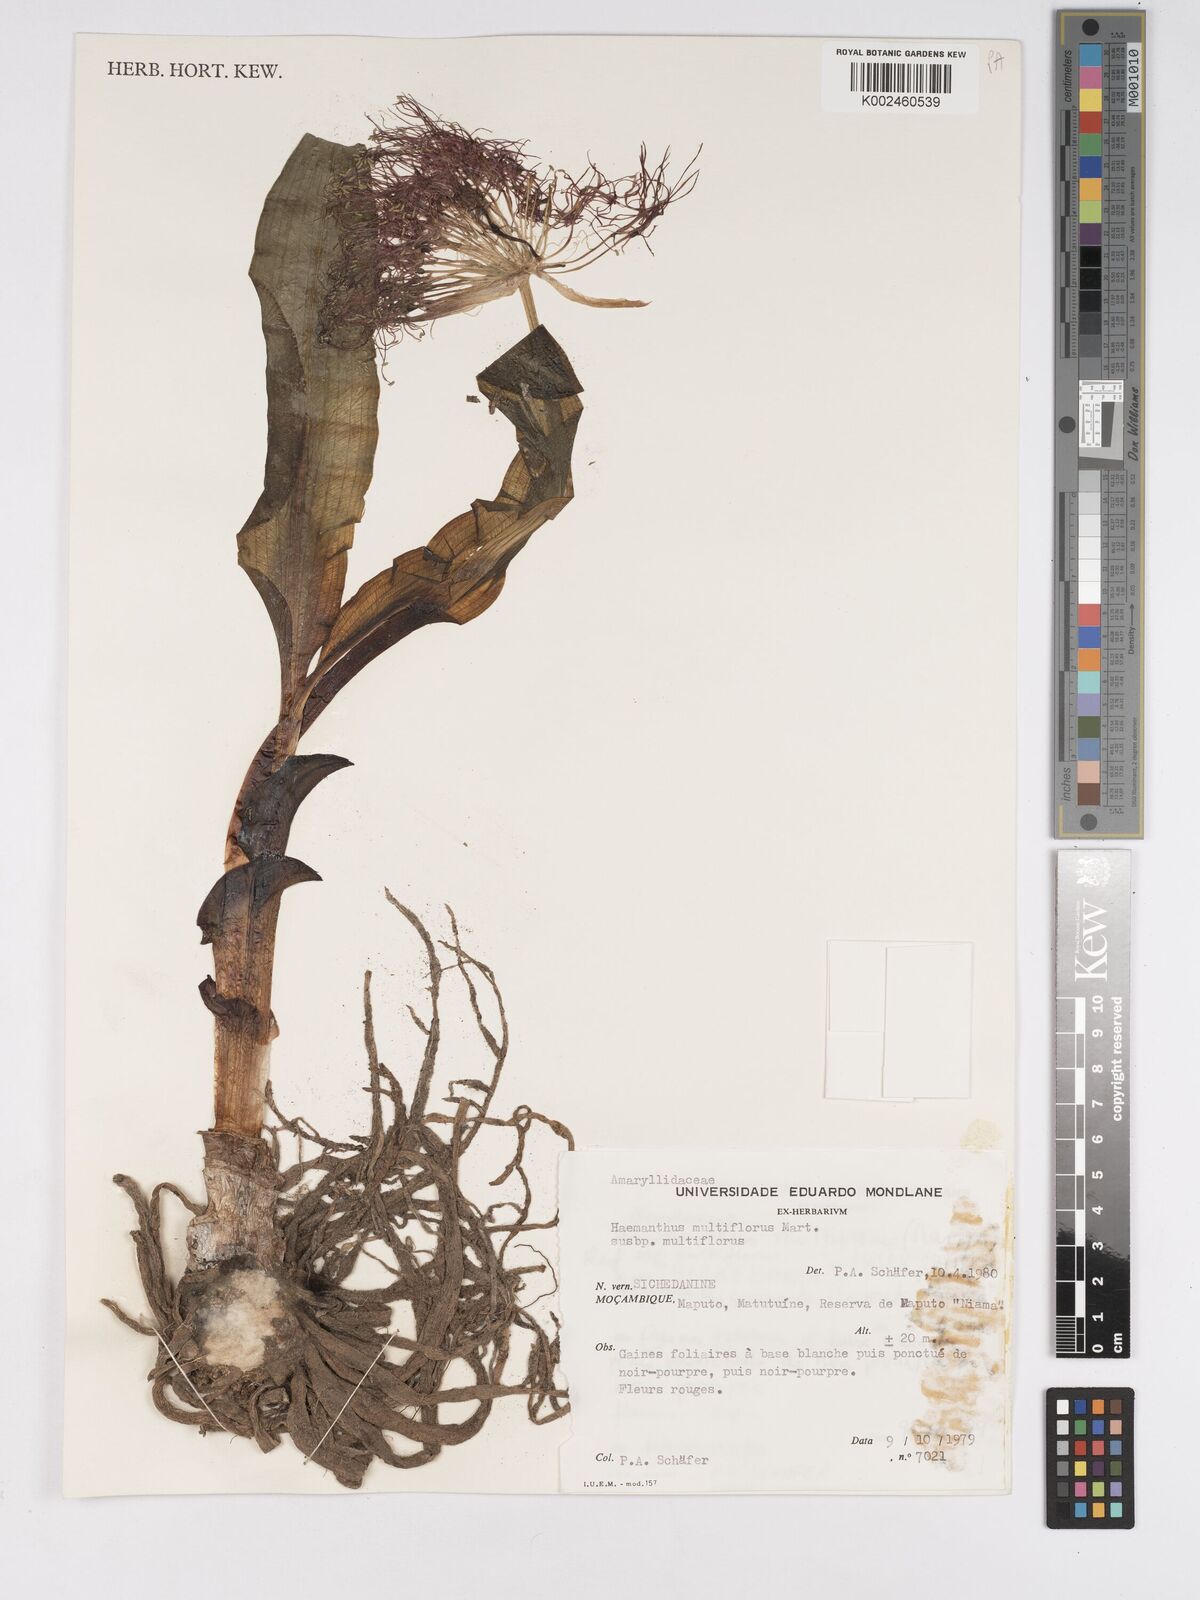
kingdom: Plantae
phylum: Tracheophyta
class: Liliopsida
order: Asparagales
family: Amaryllidaceae
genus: Scadoxus
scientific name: Scadoxus multiflorus
